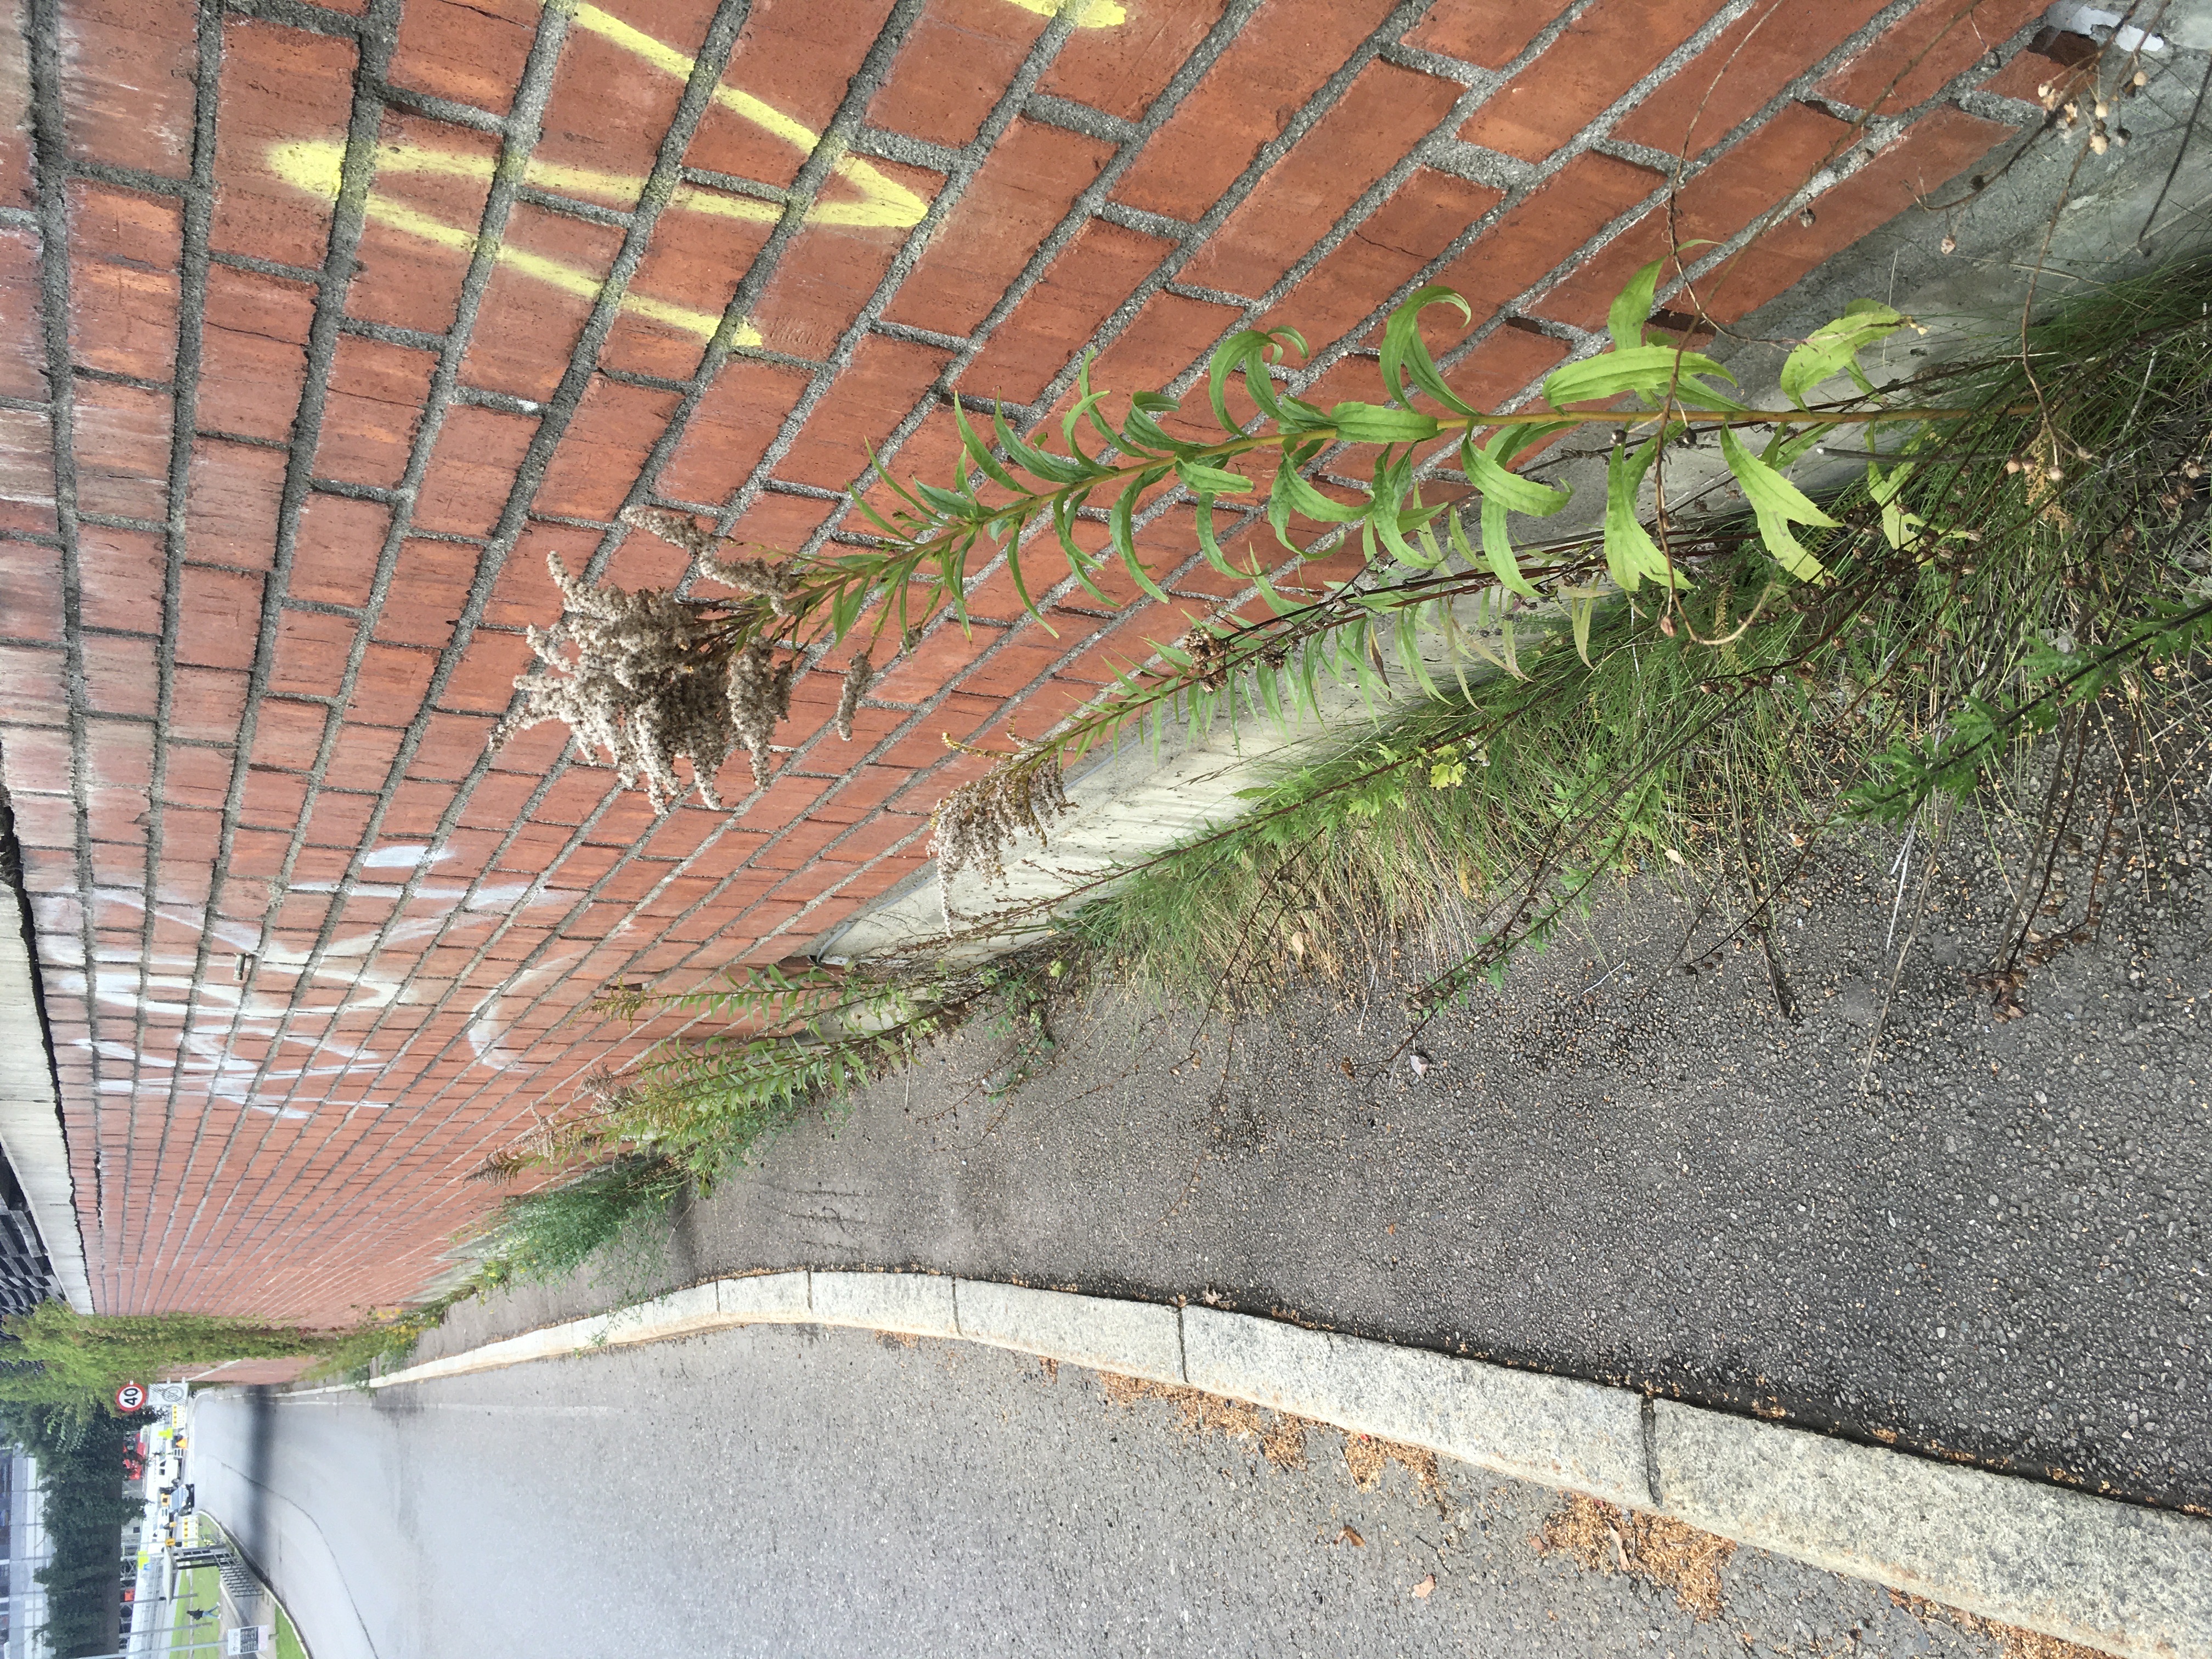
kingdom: Plantae
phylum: Tracheophyta
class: Magnoliopsida
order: Asterales
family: Asteraceae
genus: Solidago
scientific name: Solidago canadensis
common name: kanadagullris
